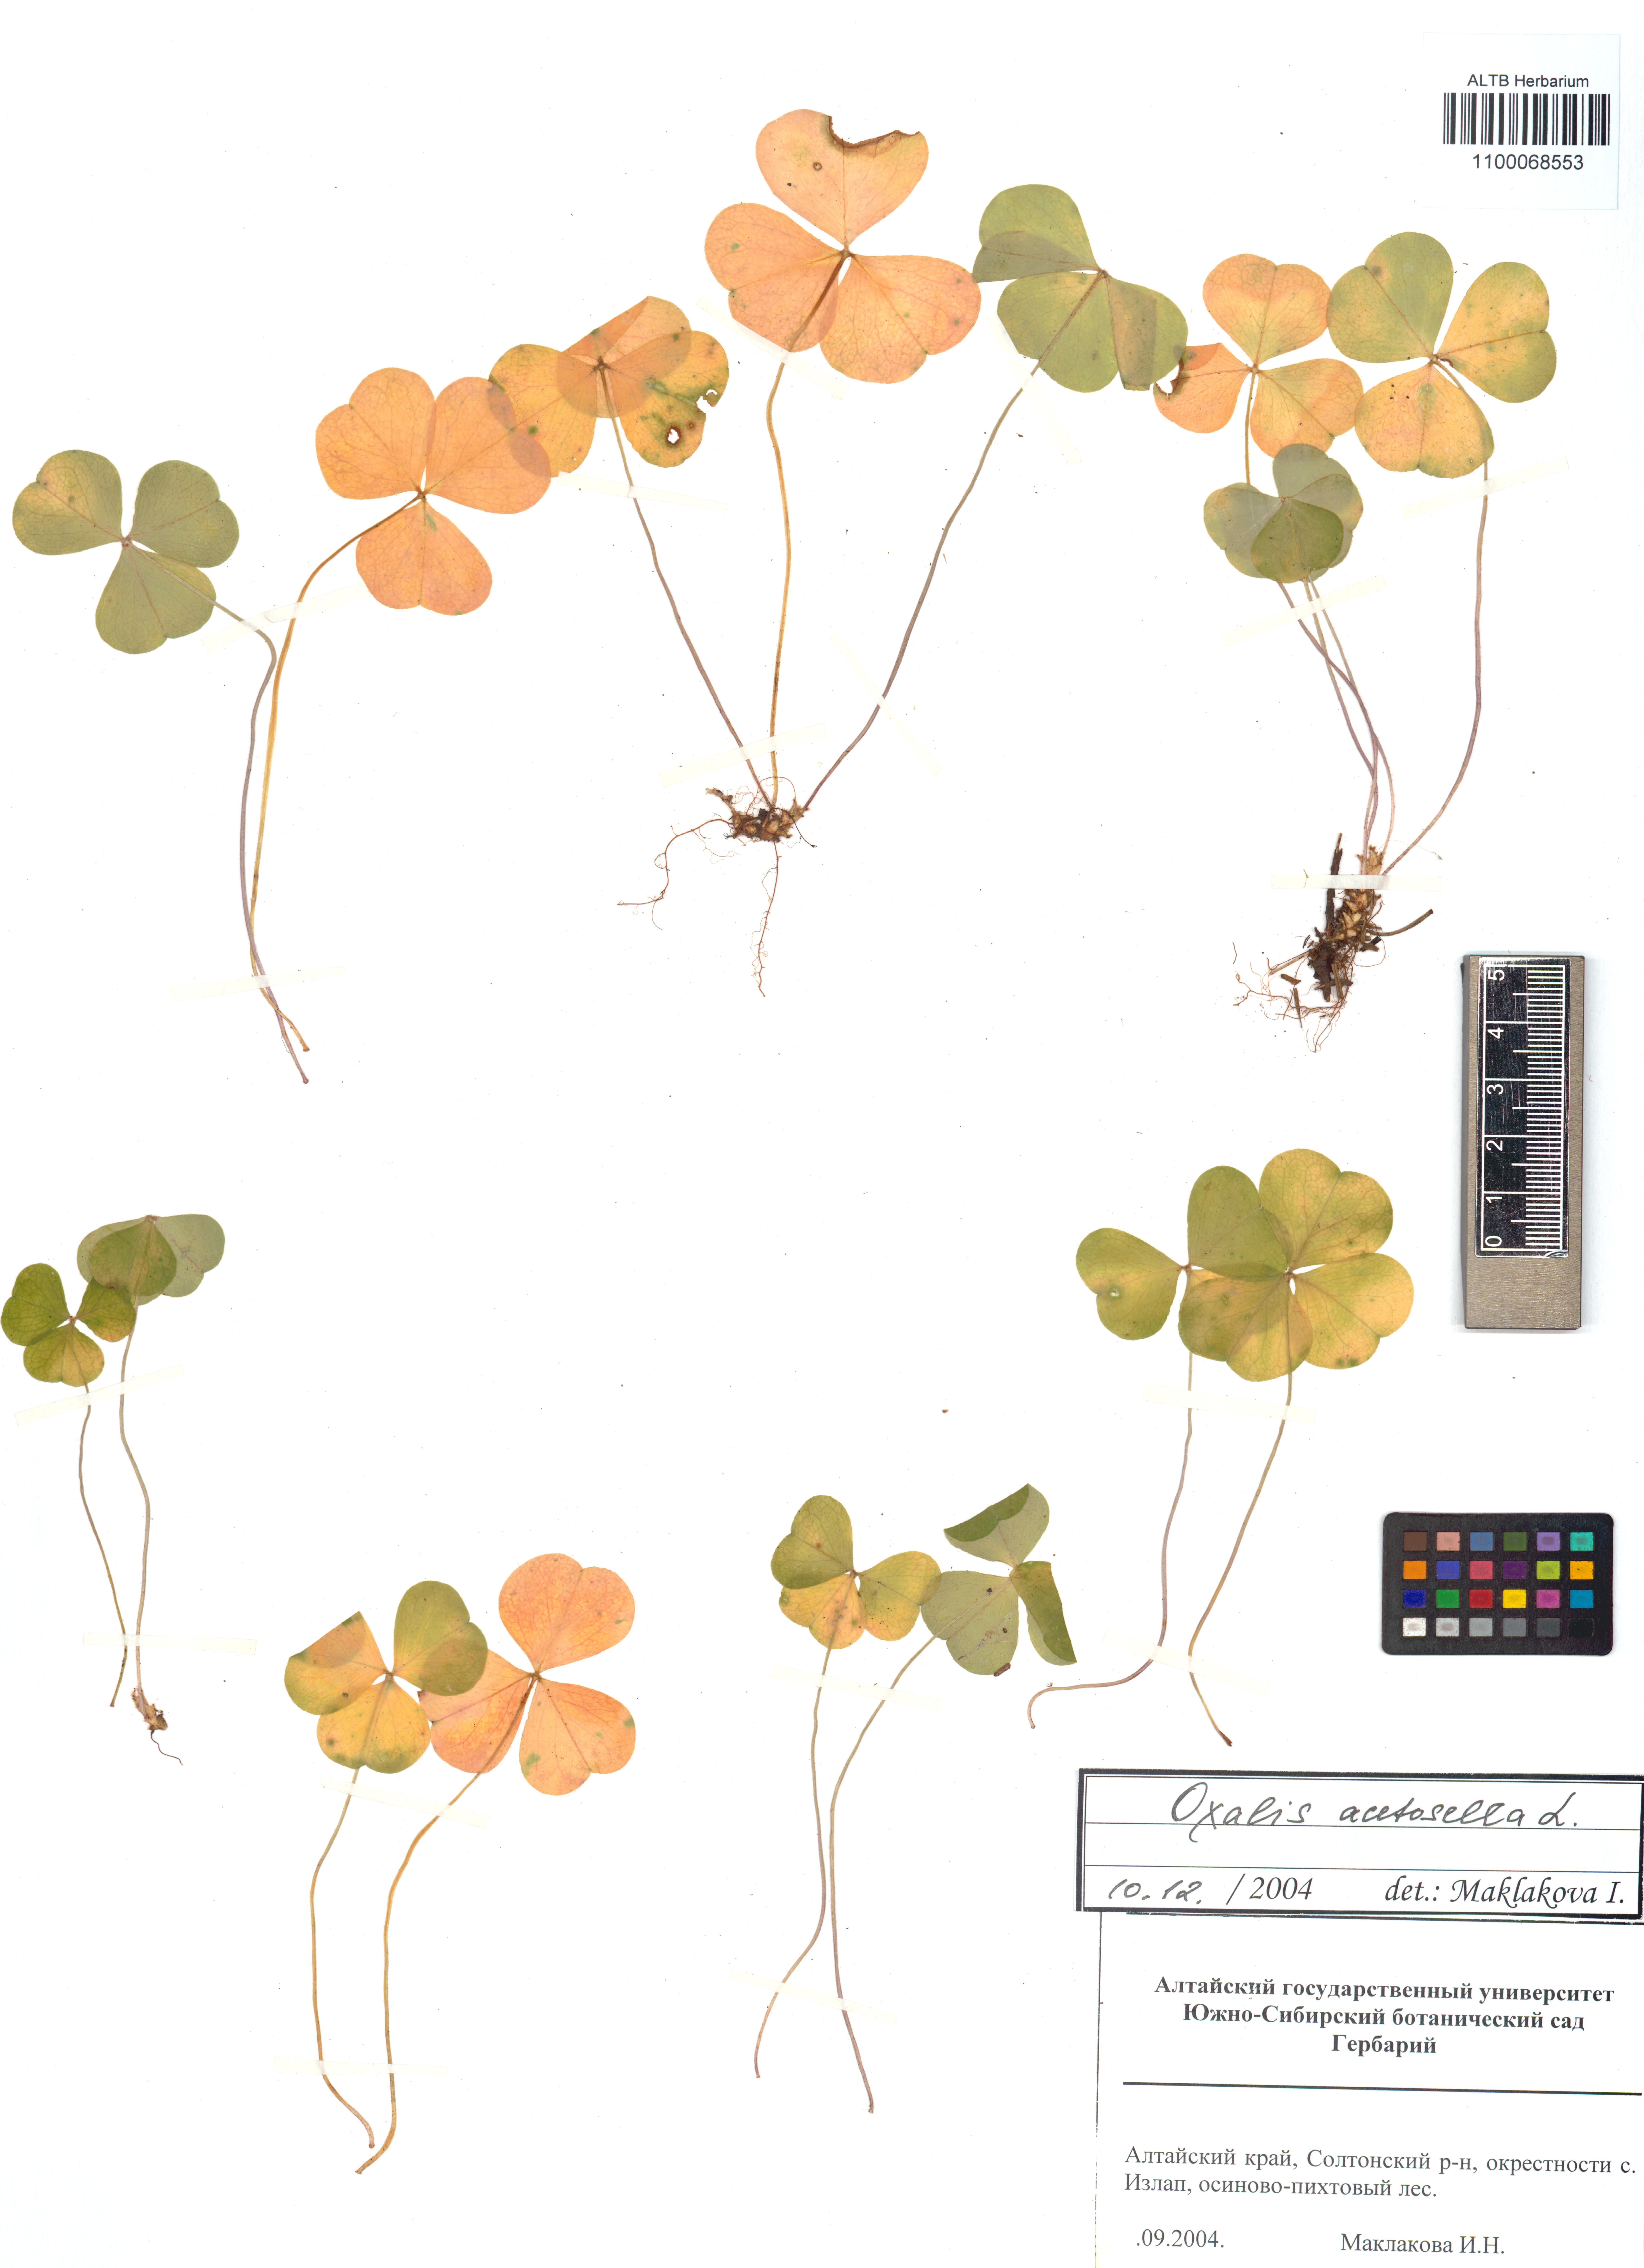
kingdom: Plantae
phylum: Tracheophyta
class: Magnoliopsida
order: Oxalidales
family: Oxalidaceae
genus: Oxalis
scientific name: Oxalis acetosella
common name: Wood-sorrel
